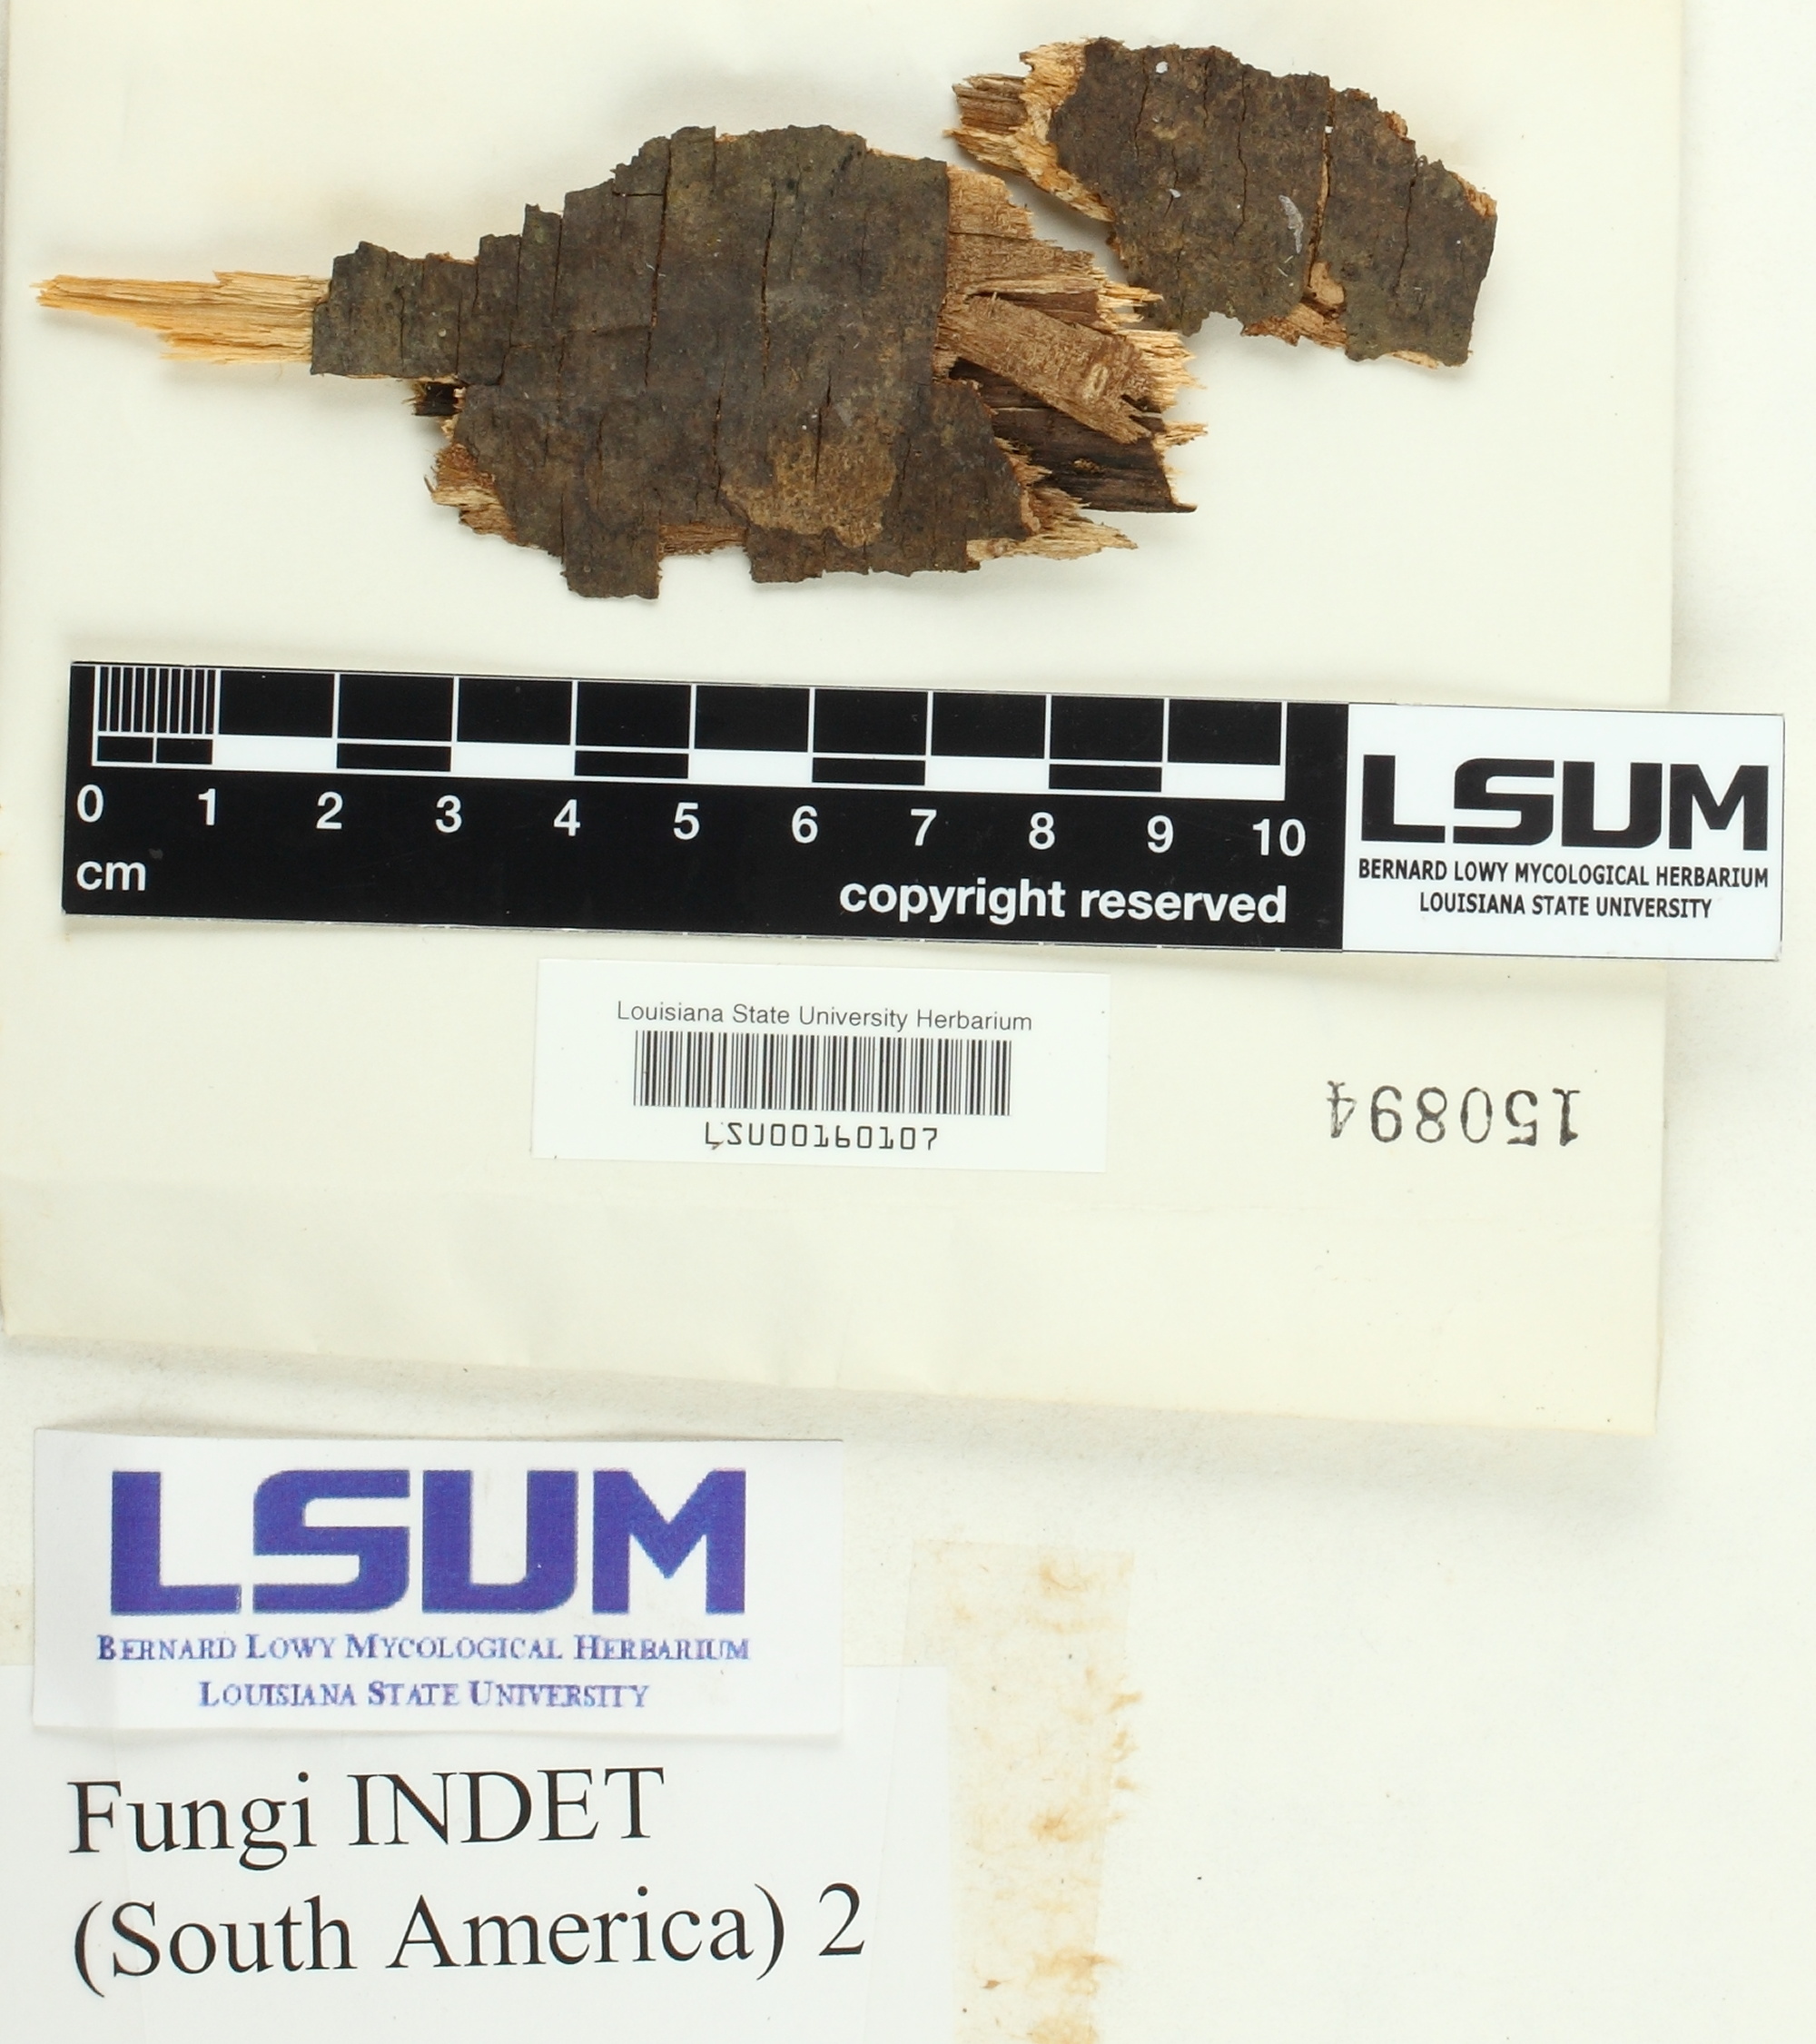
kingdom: Fungi
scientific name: Fungi
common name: Fungi
